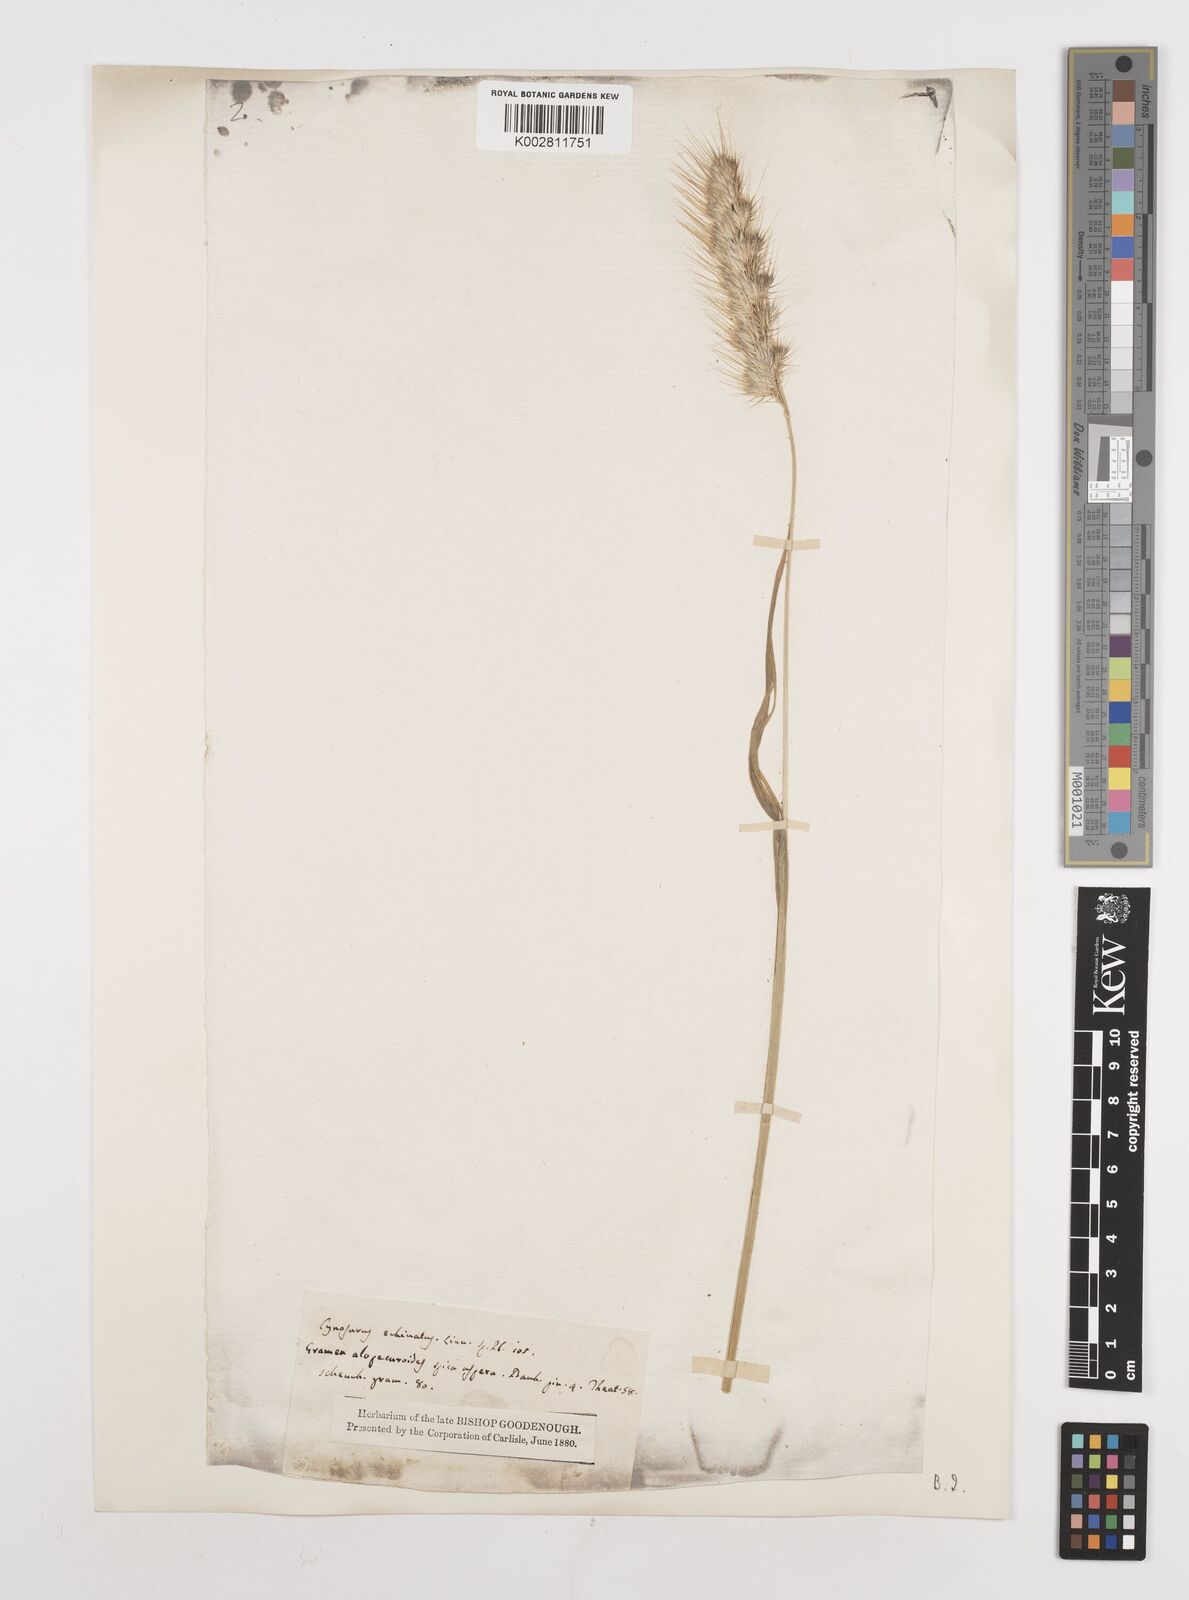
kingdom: Plantae
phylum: Tracheophyta
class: Liliopsida
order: Poales
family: Poaceae
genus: Cynosurus
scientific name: Cynosurus echinatus
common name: Rough dog's-tail
